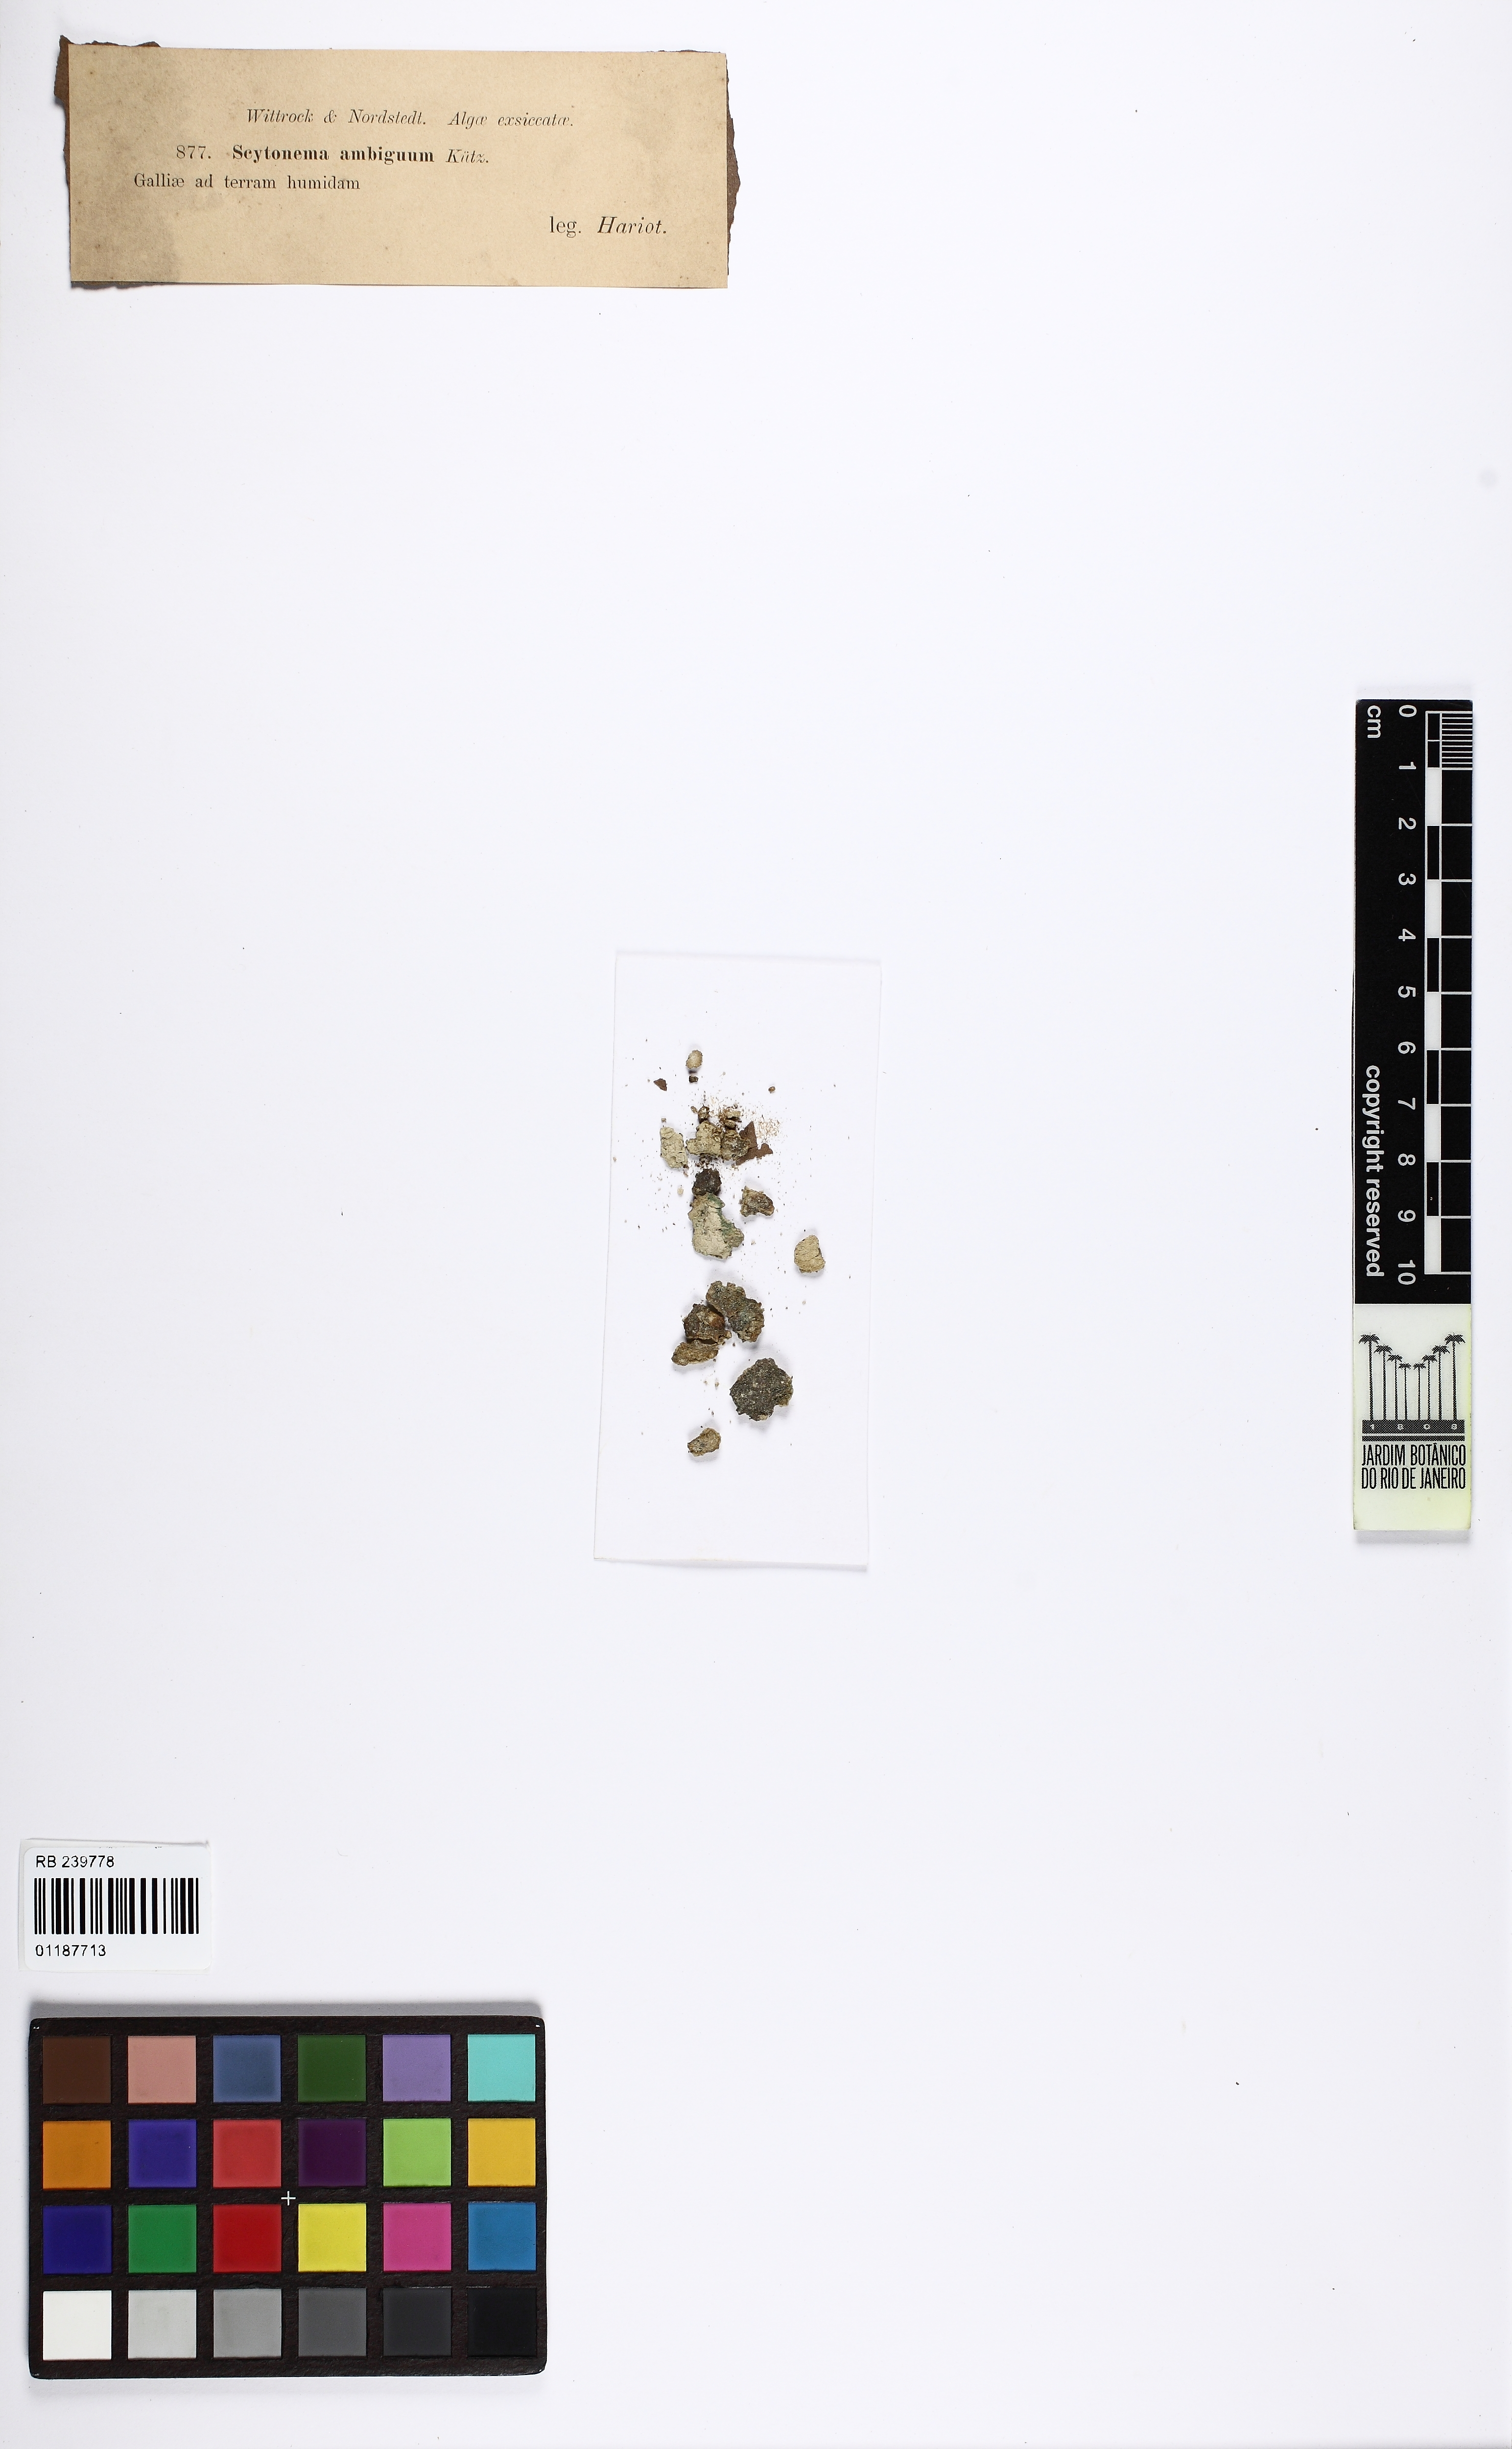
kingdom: Bacteria
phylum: Cyanobacteria
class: Cyanobacteriia
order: Cyanobacteriales
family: Nostocaceae
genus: Fischerella
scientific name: Fischerella ambigua
